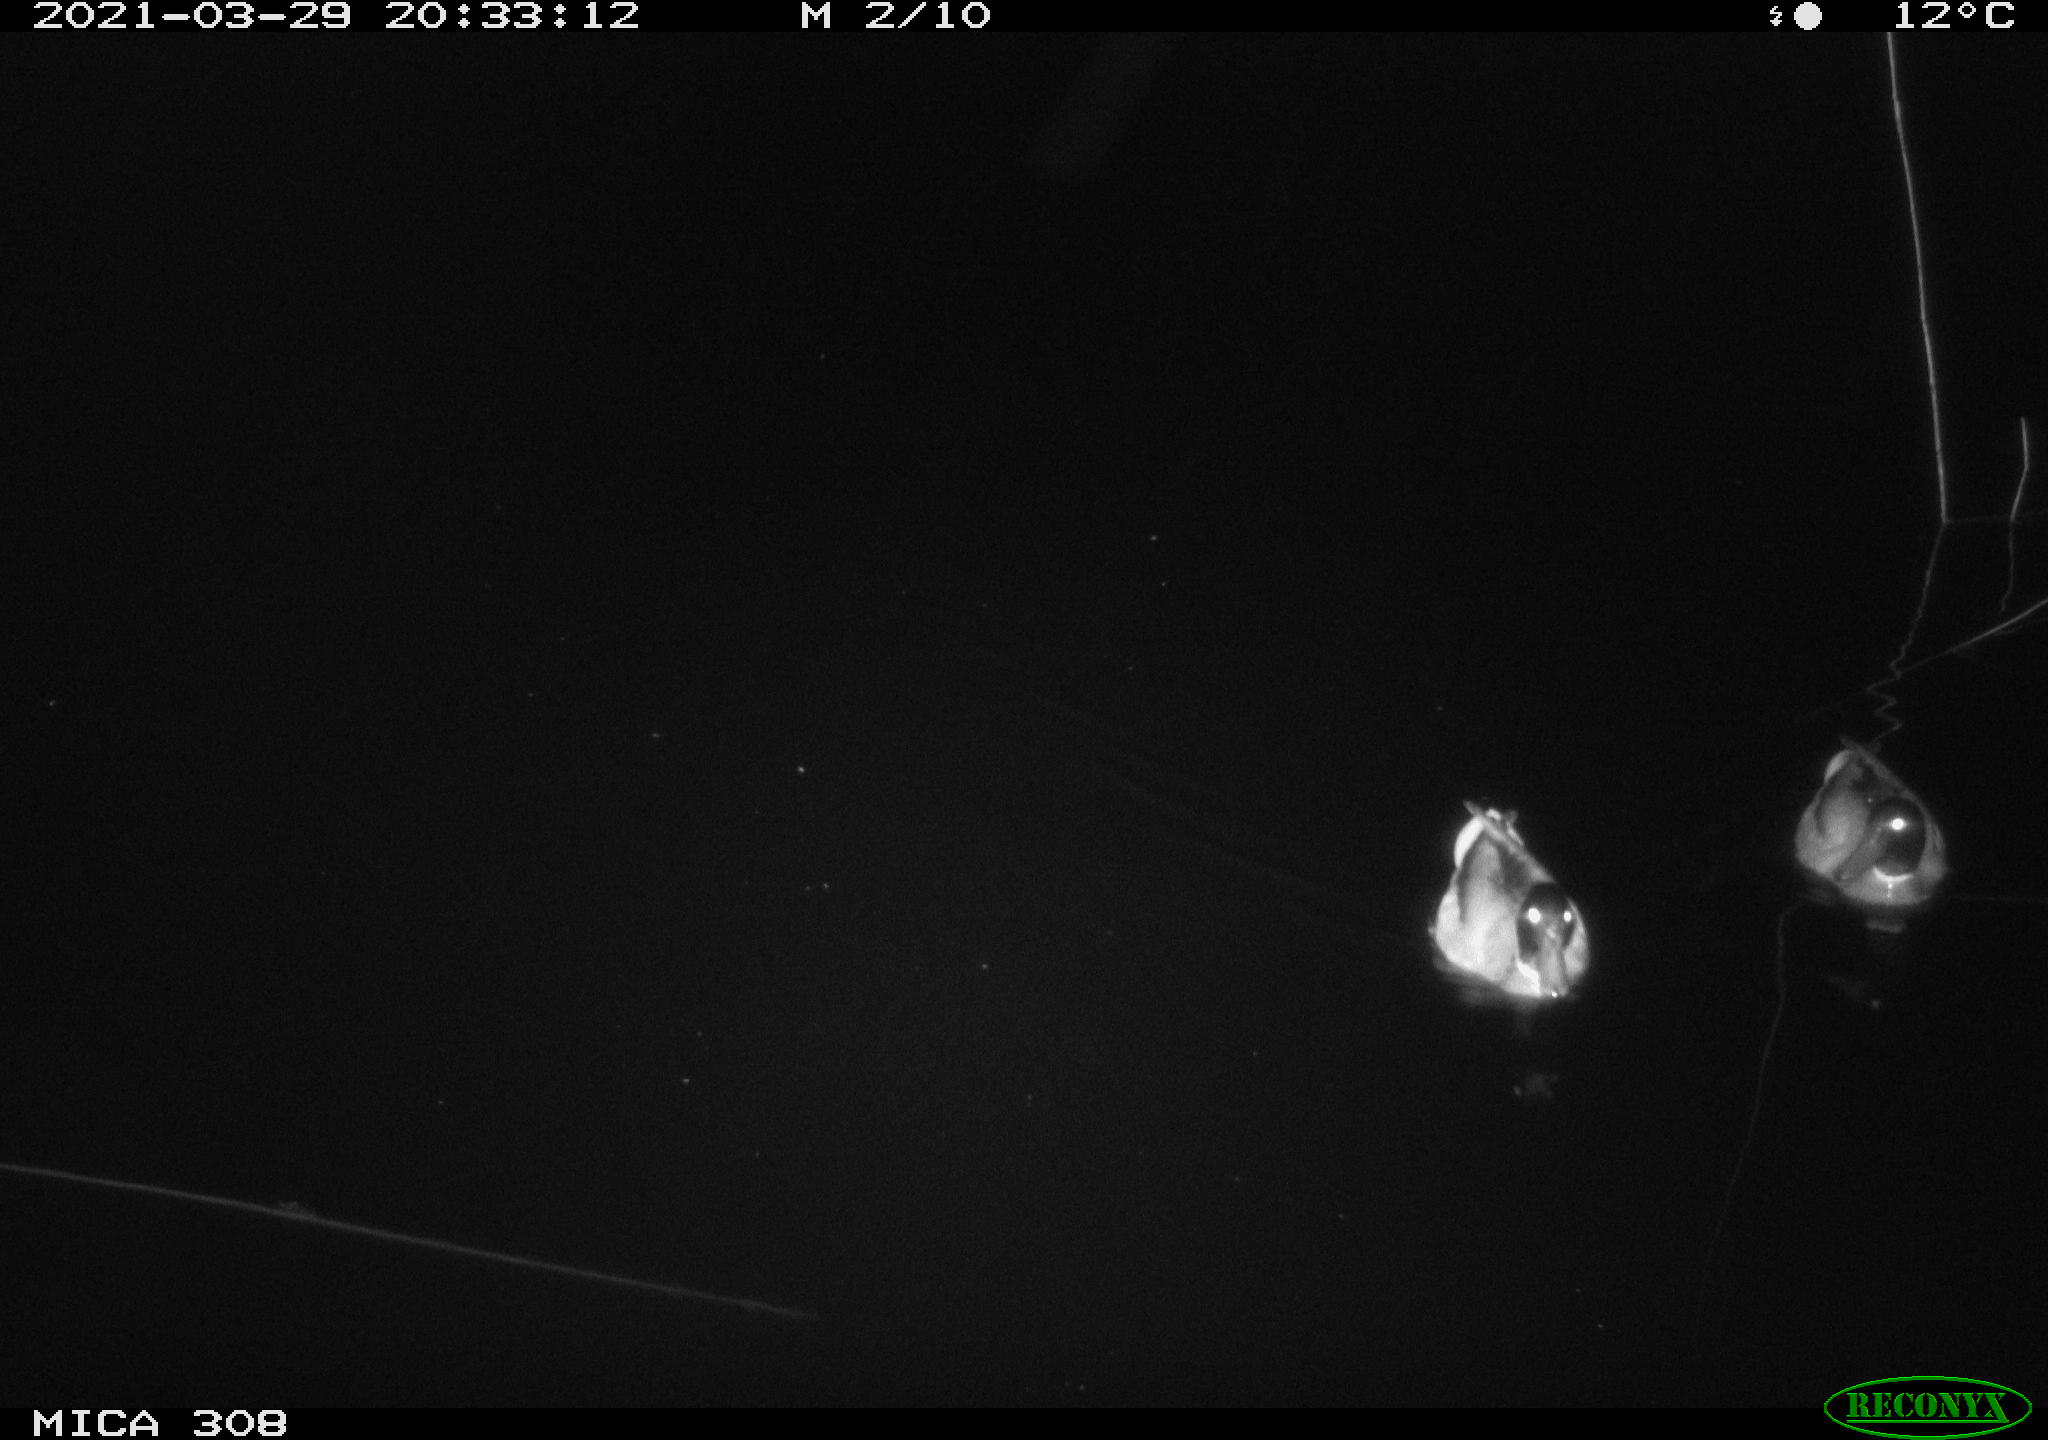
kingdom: Animalia
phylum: Chordata
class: Aves
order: Anseriformes
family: Anatidae
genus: Anas
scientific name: Anas platyrhynchos
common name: Mallard
